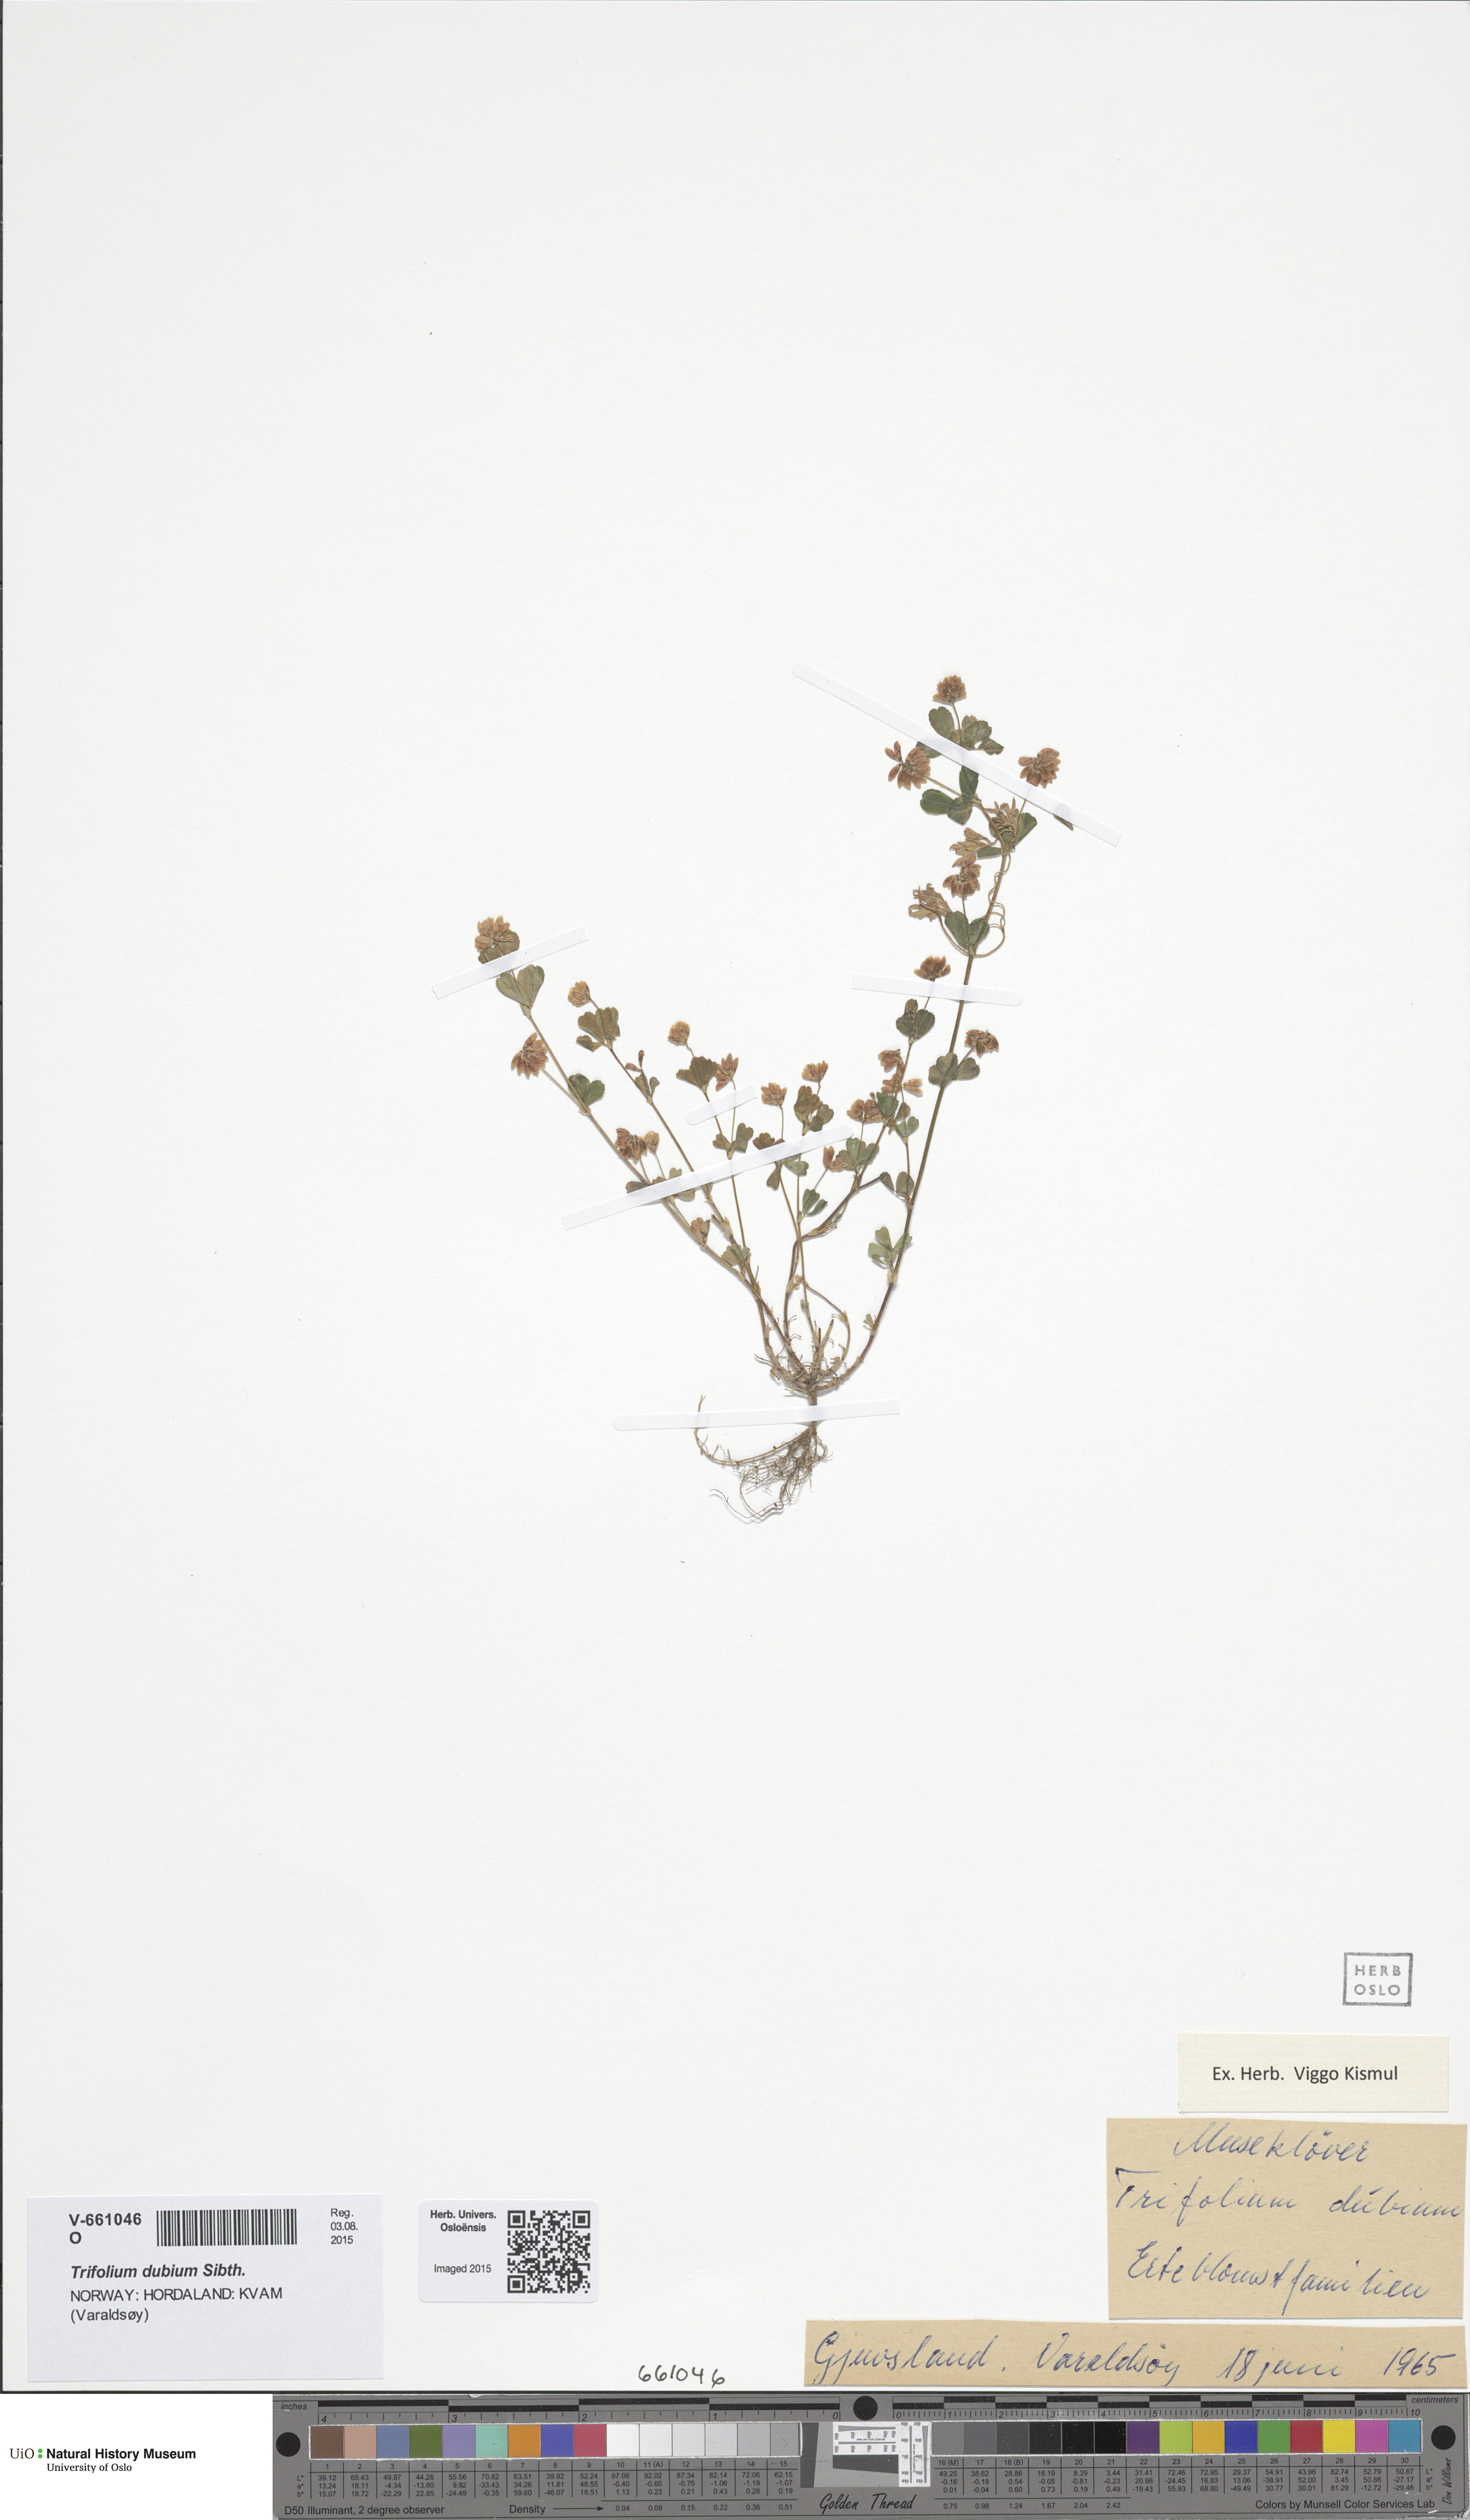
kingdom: Plantae
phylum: Tracheophyta
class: Magnoliopsida
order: Fabales
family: Fabaceae
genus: Trifolium
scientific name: Trifolium dubium
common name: Suckling clover
